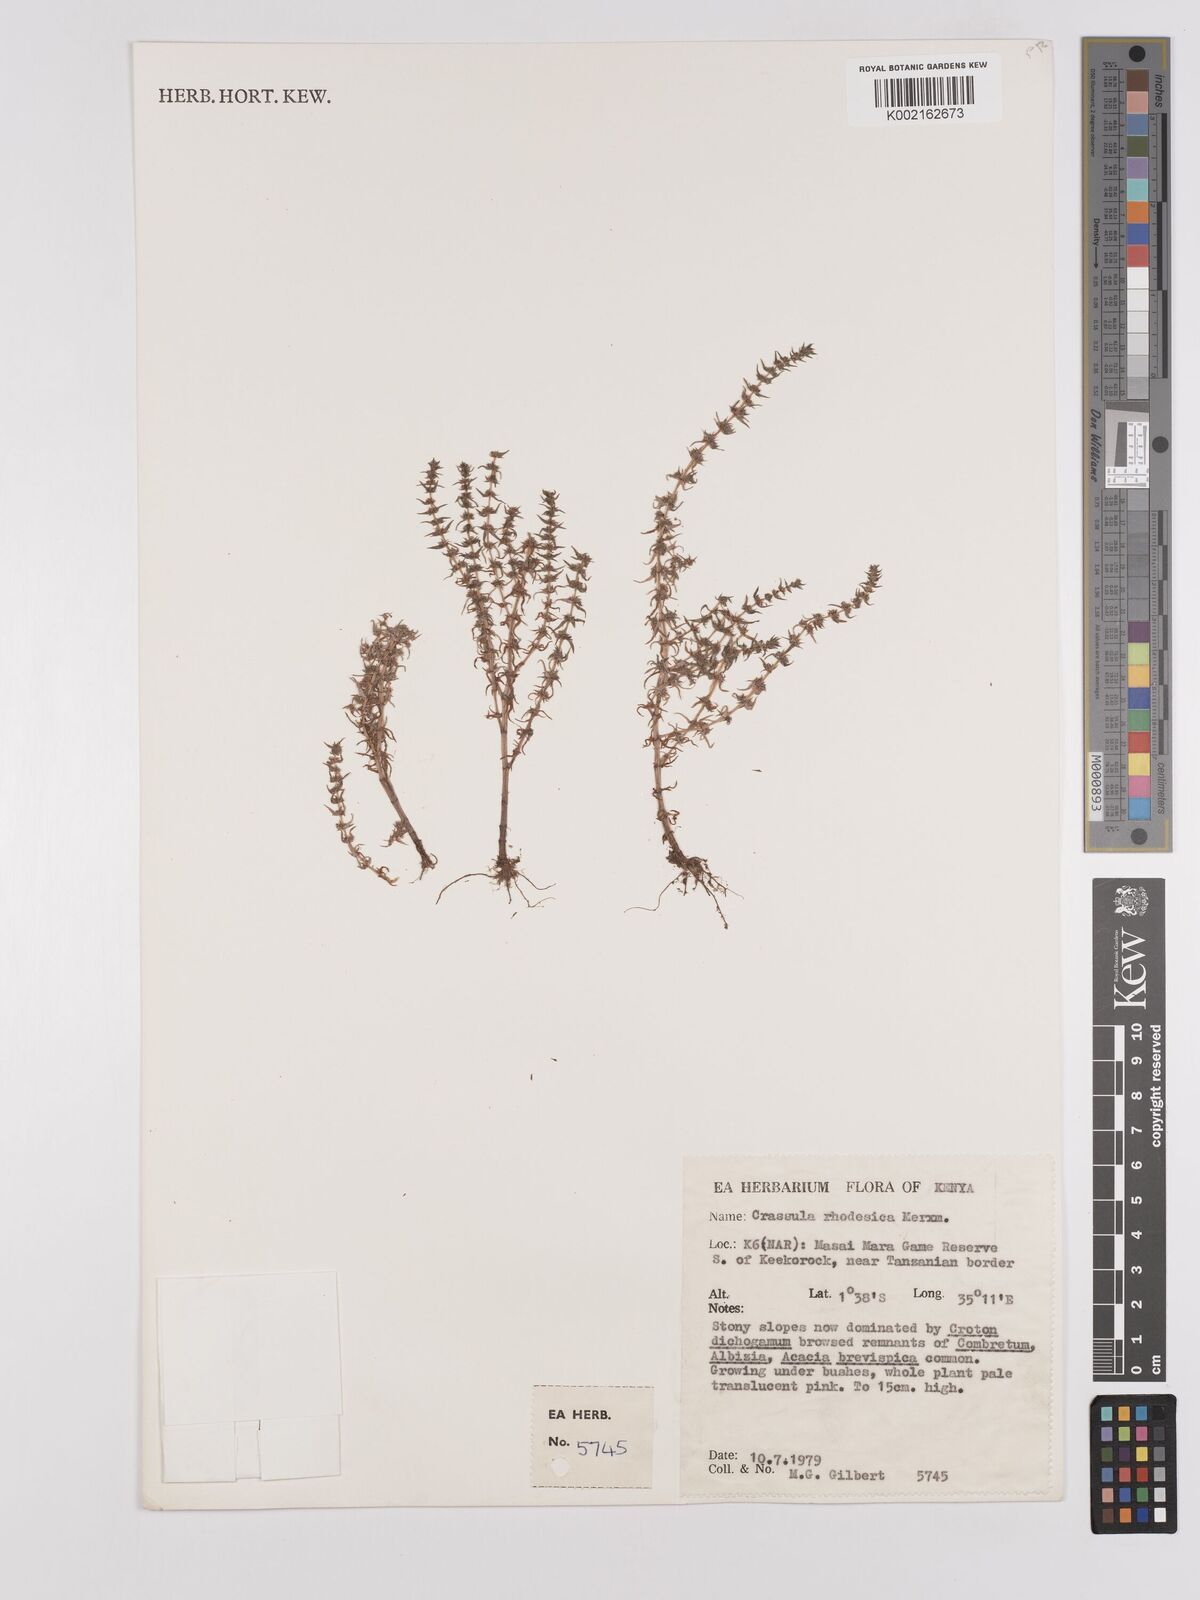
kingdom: Plantae
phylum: Tracheophyta
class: Magnoliopsida
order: Saxifragales
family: Crassulaceae
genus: Crassula
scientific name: Crassula rhodesica
